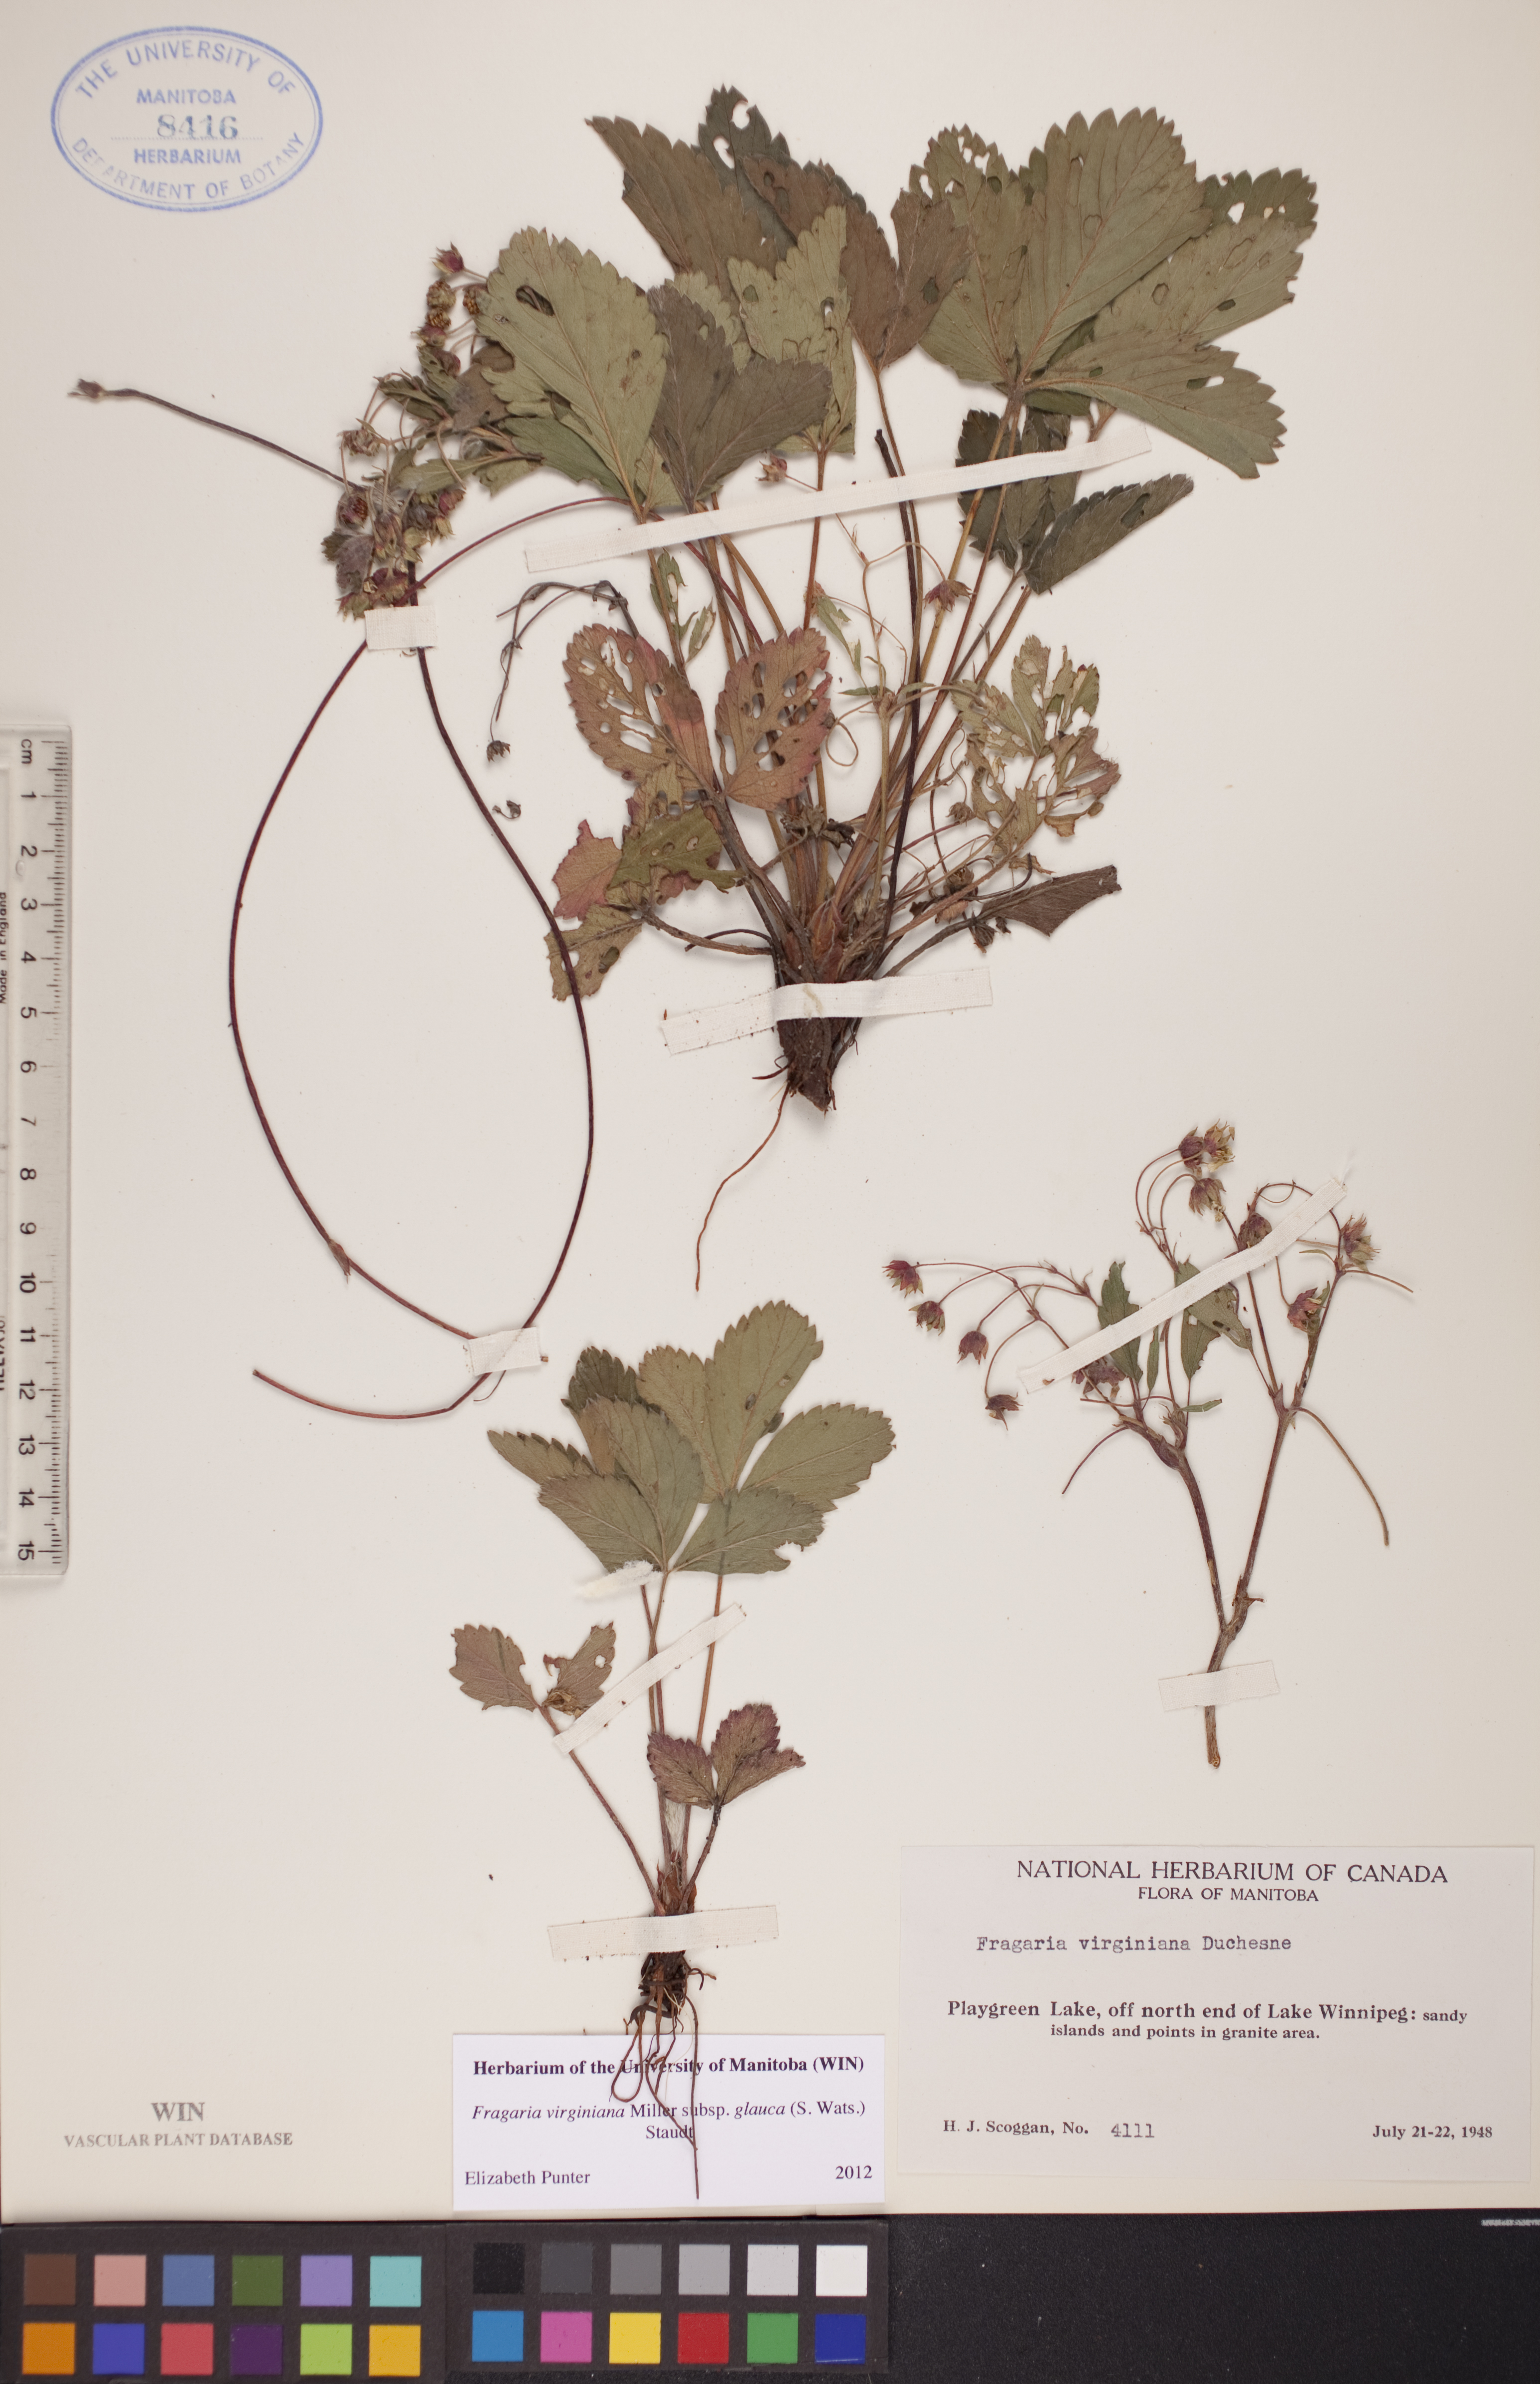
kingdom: Plantae
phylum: Tracheophyta
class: Magnoliopsida
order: Rosales
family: Rosaceae
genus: Fragaria
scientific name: Fragaria virginiana
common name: Thickleaved wild strawberry
